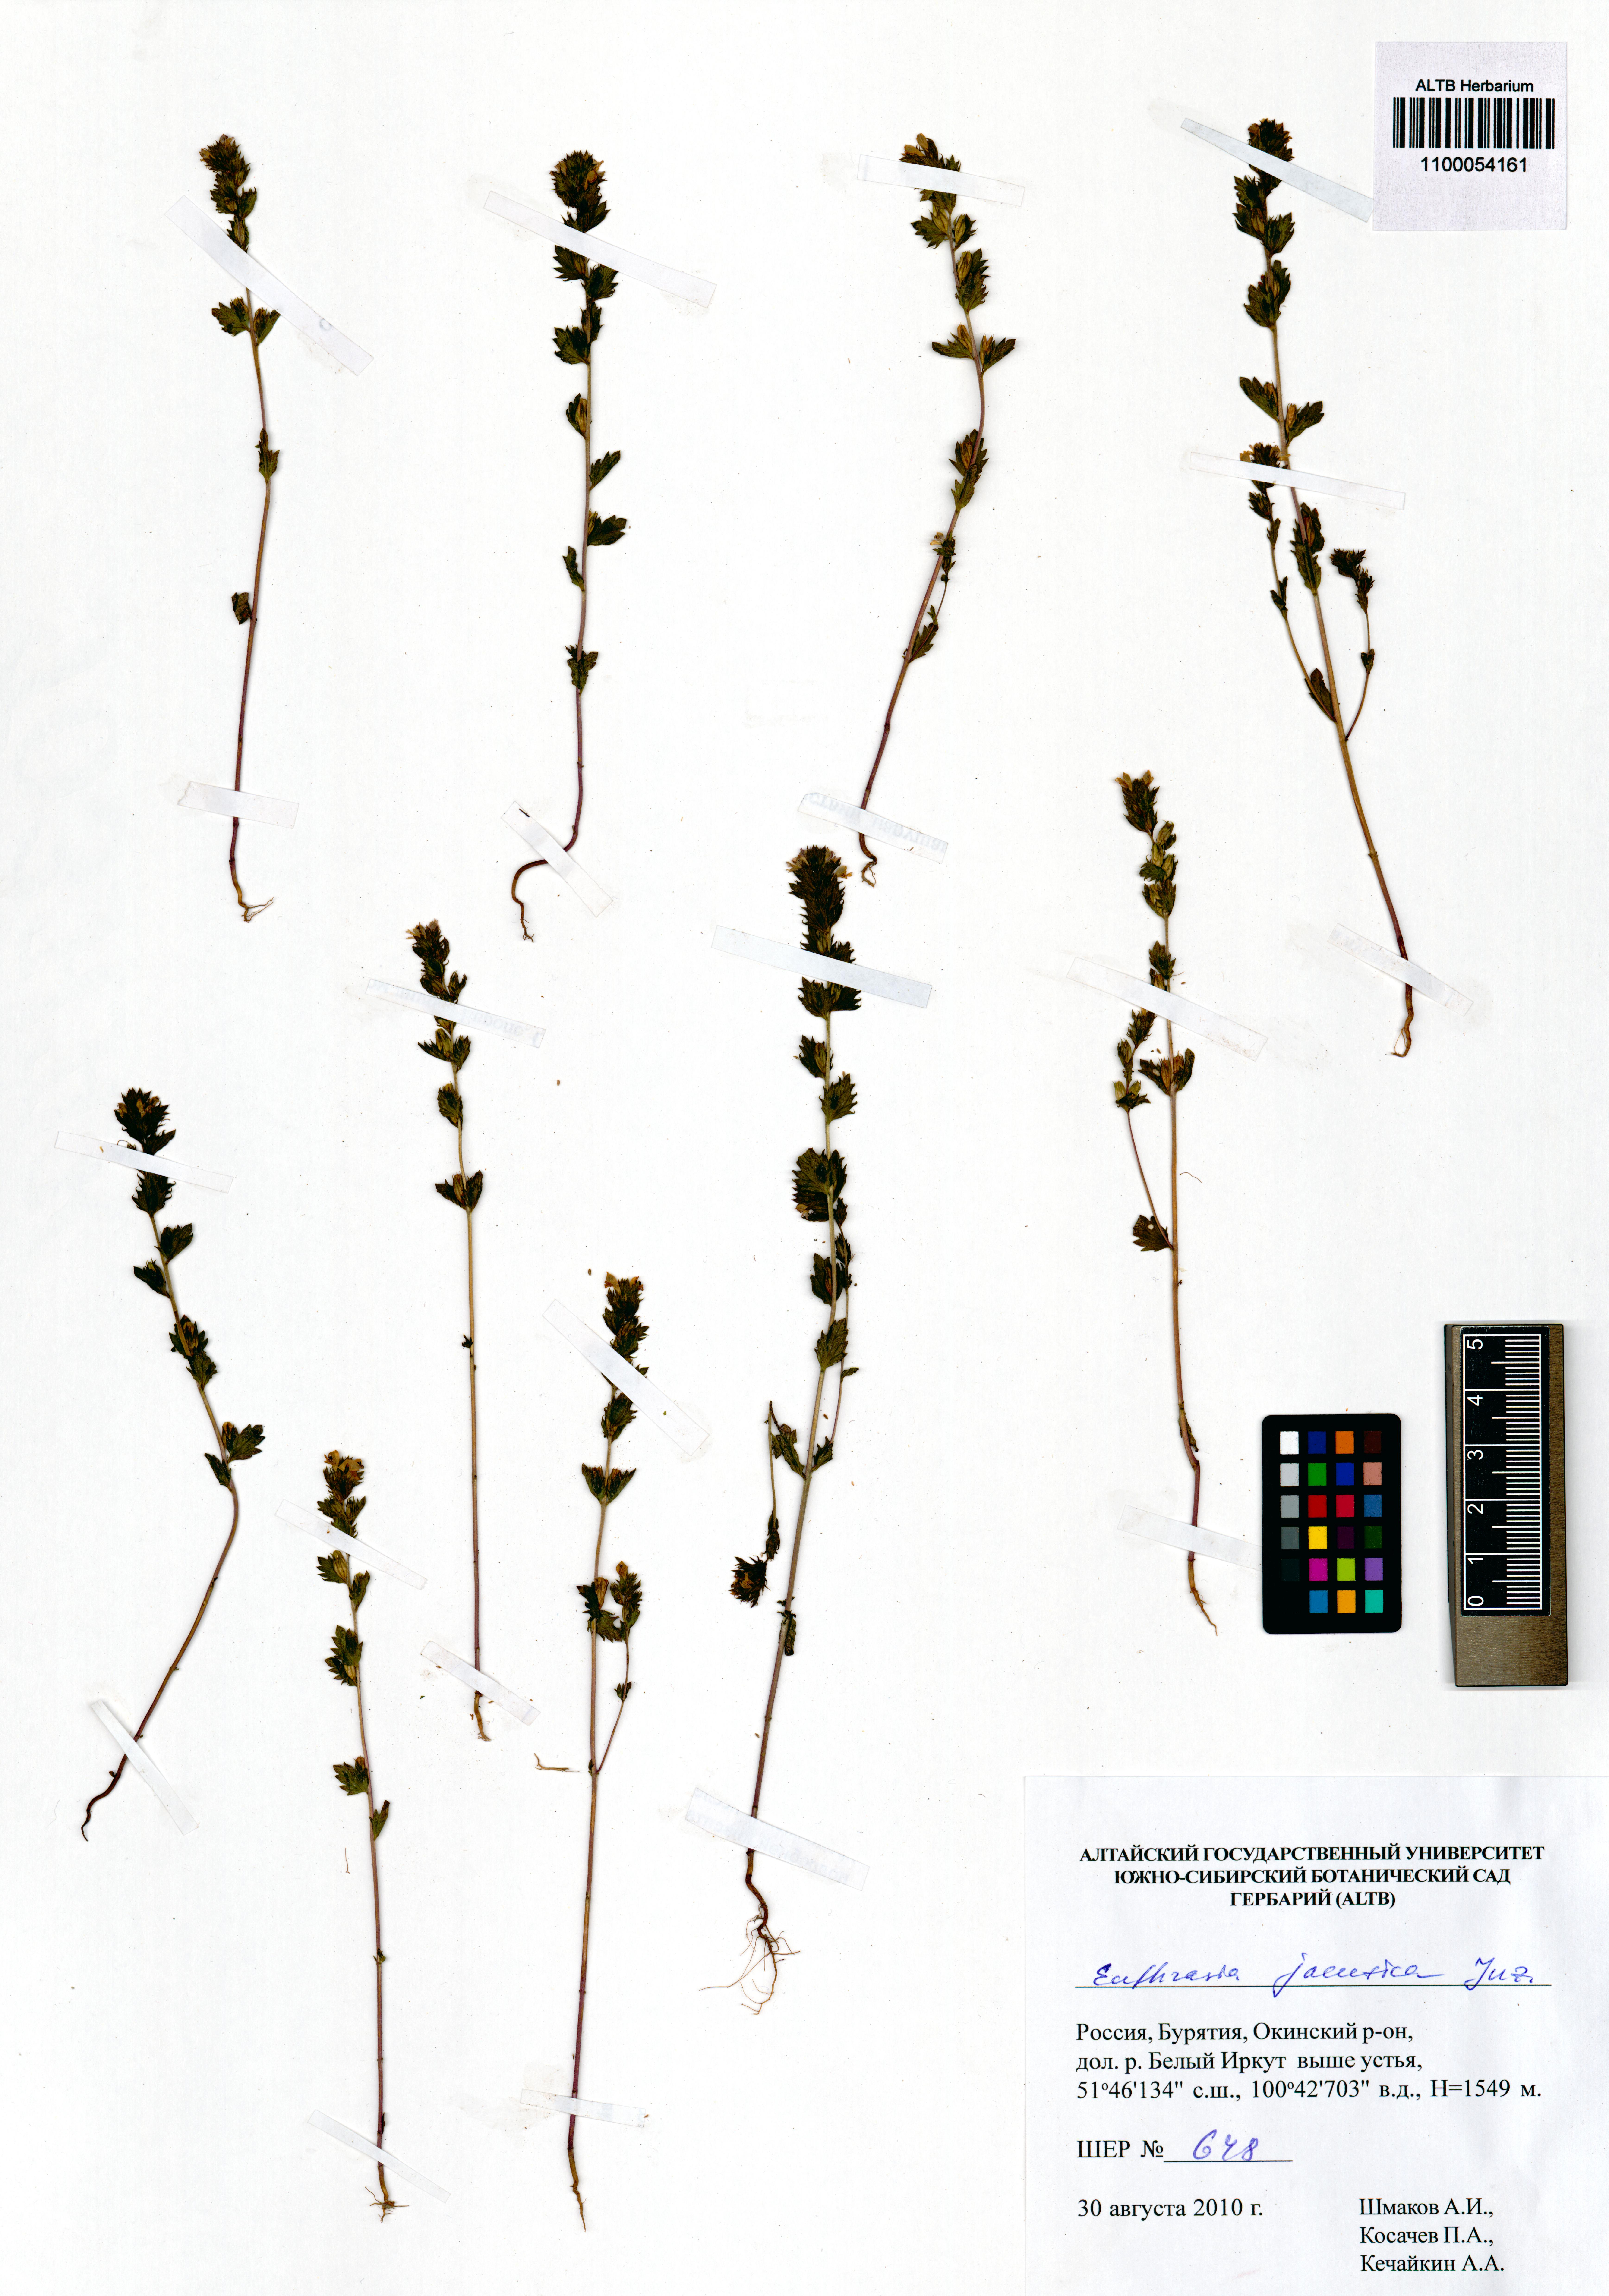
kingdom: Plantae
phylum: Tracheophyta
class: Magnoliopsida
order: Lamiales
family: Orobanchaceae
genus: Euphrasia
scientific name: Euphrasia jacutica
